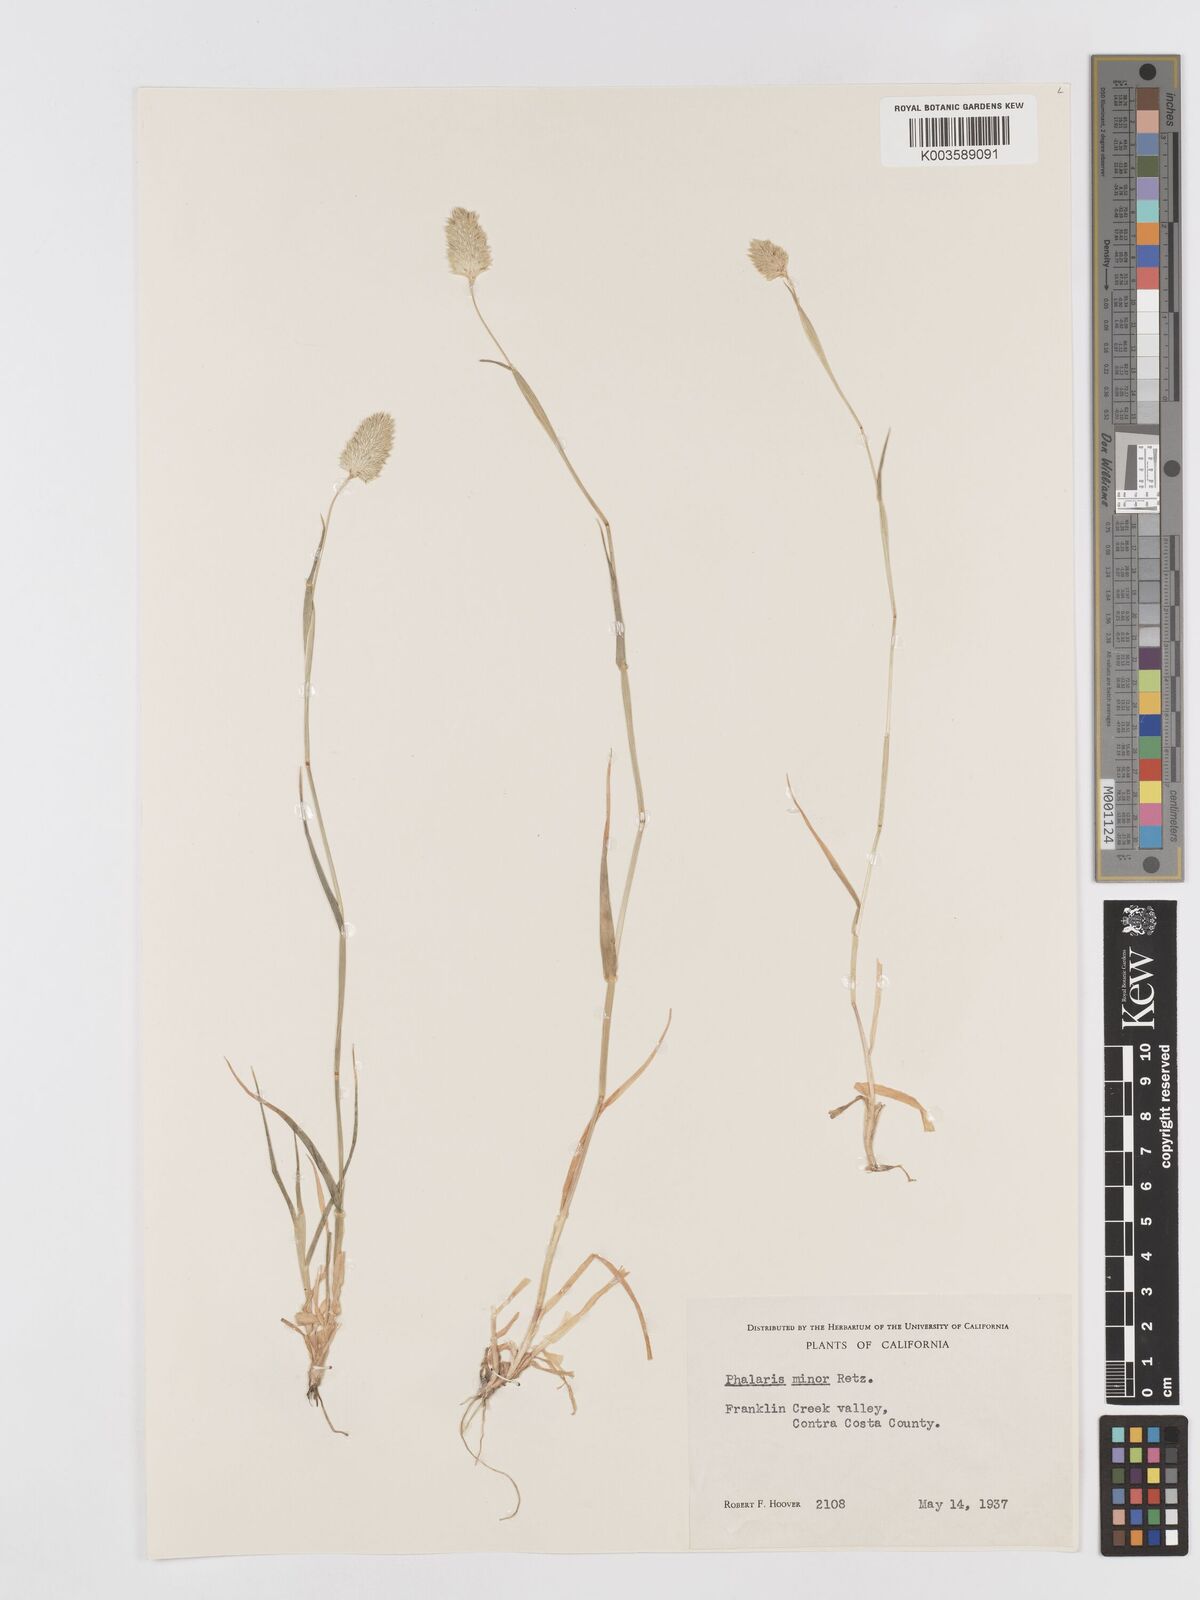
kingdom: Plantae
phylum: Tracheophyta
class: Liliopsida
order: Poales
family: Poaceae
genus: Phalaris
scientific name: Phalaris minor
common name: Littleseed canarygrass
